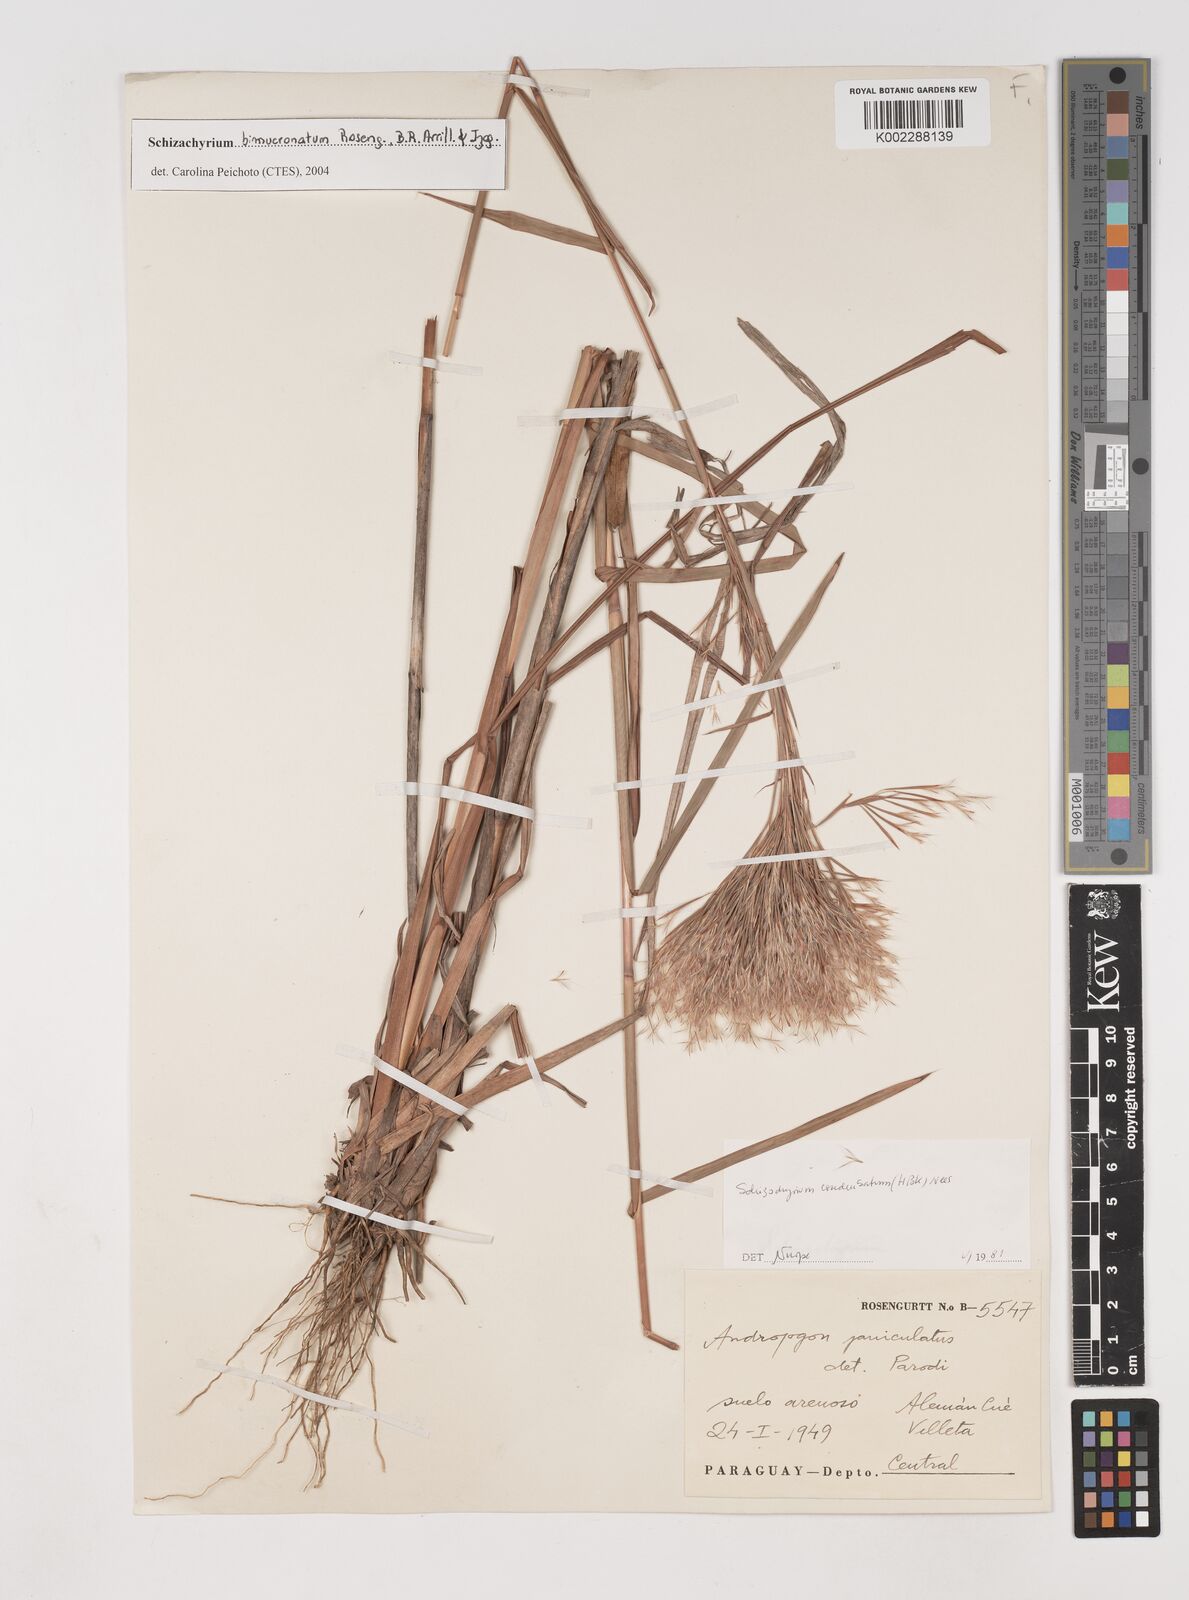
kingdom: Plantae
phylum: Tracheophyta
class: Liliopsida
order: Poales
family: Poaceae
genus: Schizachyrium
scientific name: Schizachyrium microstachyum
